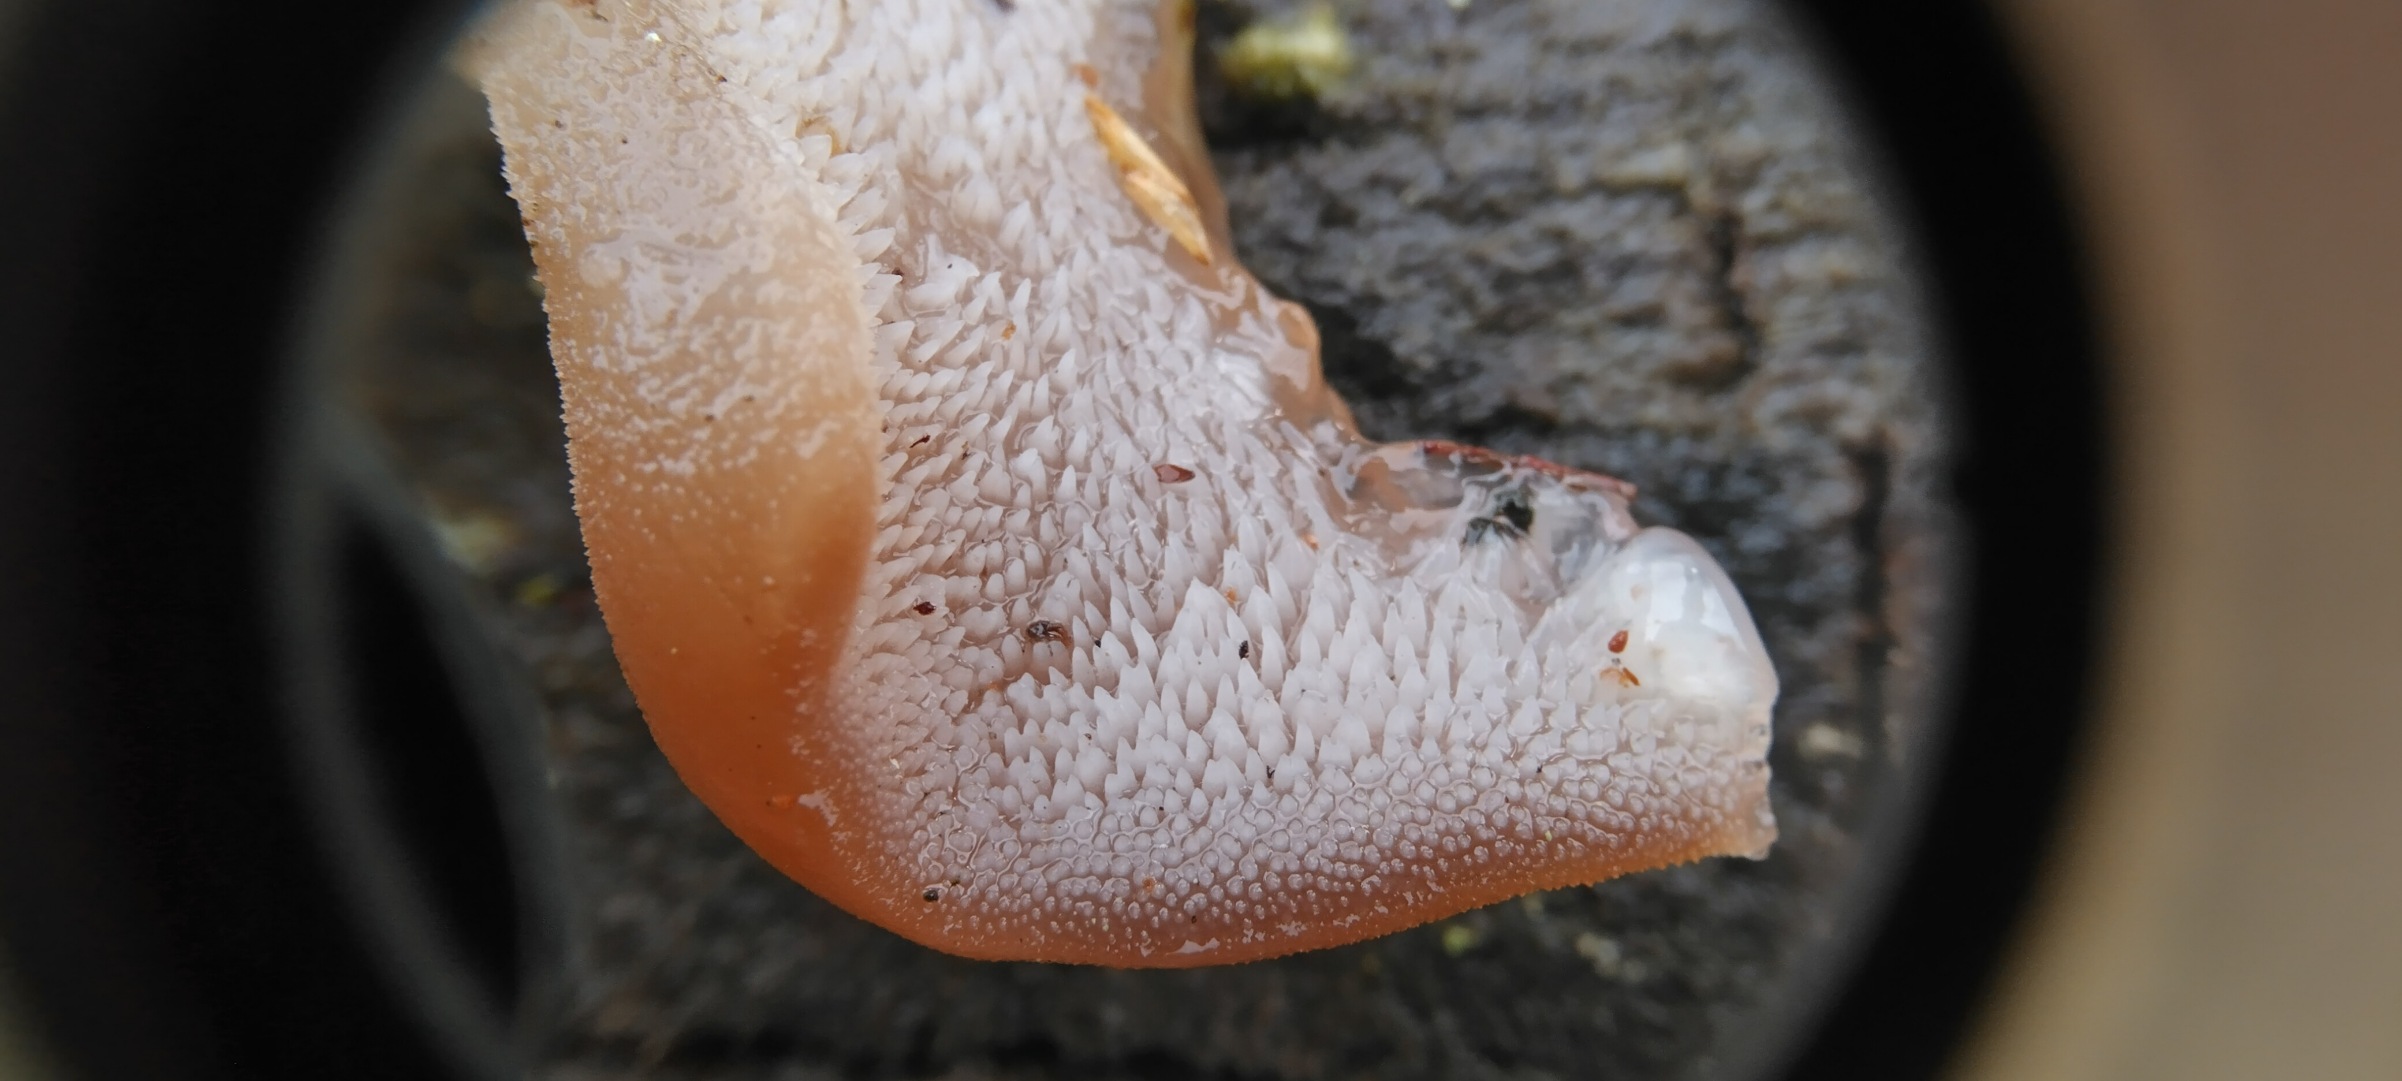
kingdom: Fungi
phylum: Basidiomycota
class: Agaricomycetes
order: Auriculariales
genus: Pseudohydnum
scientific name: Pseudohydnum gelatinosum
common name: Bævretand
